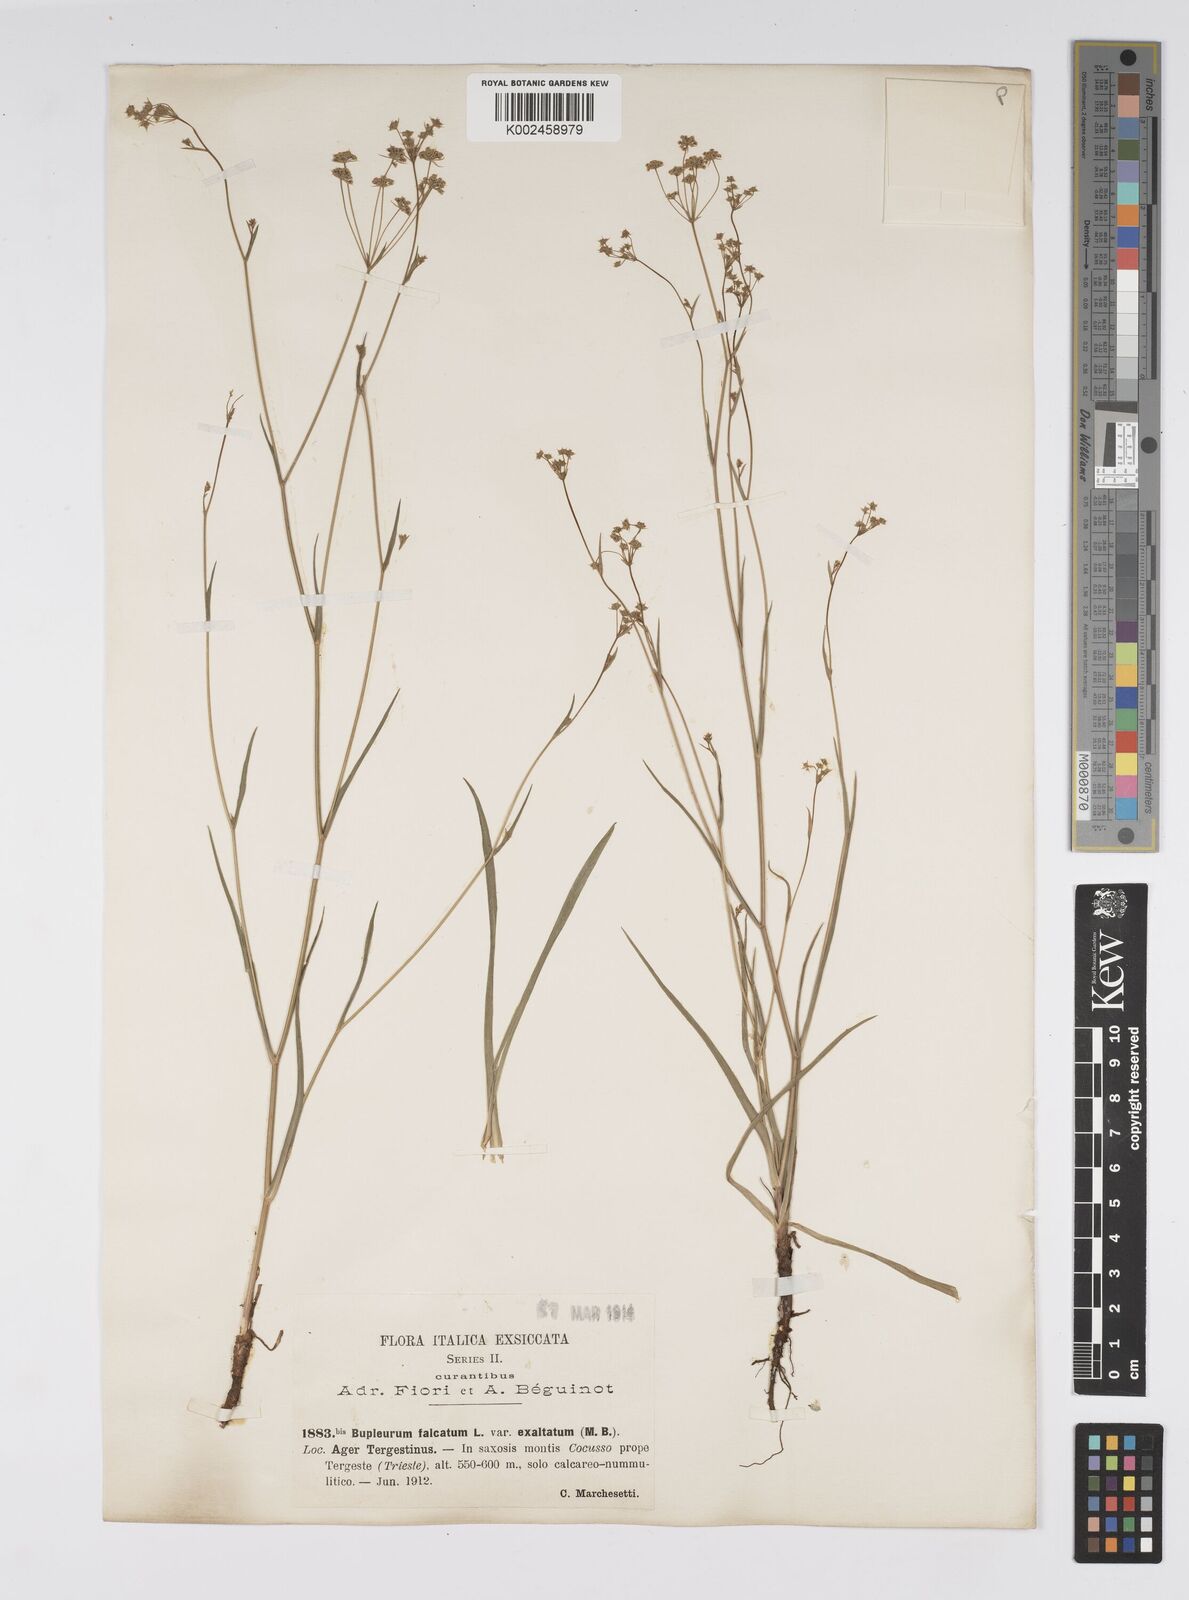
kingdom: Plantae
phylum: Tracheophyta
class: Magnoliopsida
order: Apiales
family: Apiaceae
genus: Bupleurum
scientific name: Bupleurum falcatum
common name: Sickle-leaved hare's-ear
